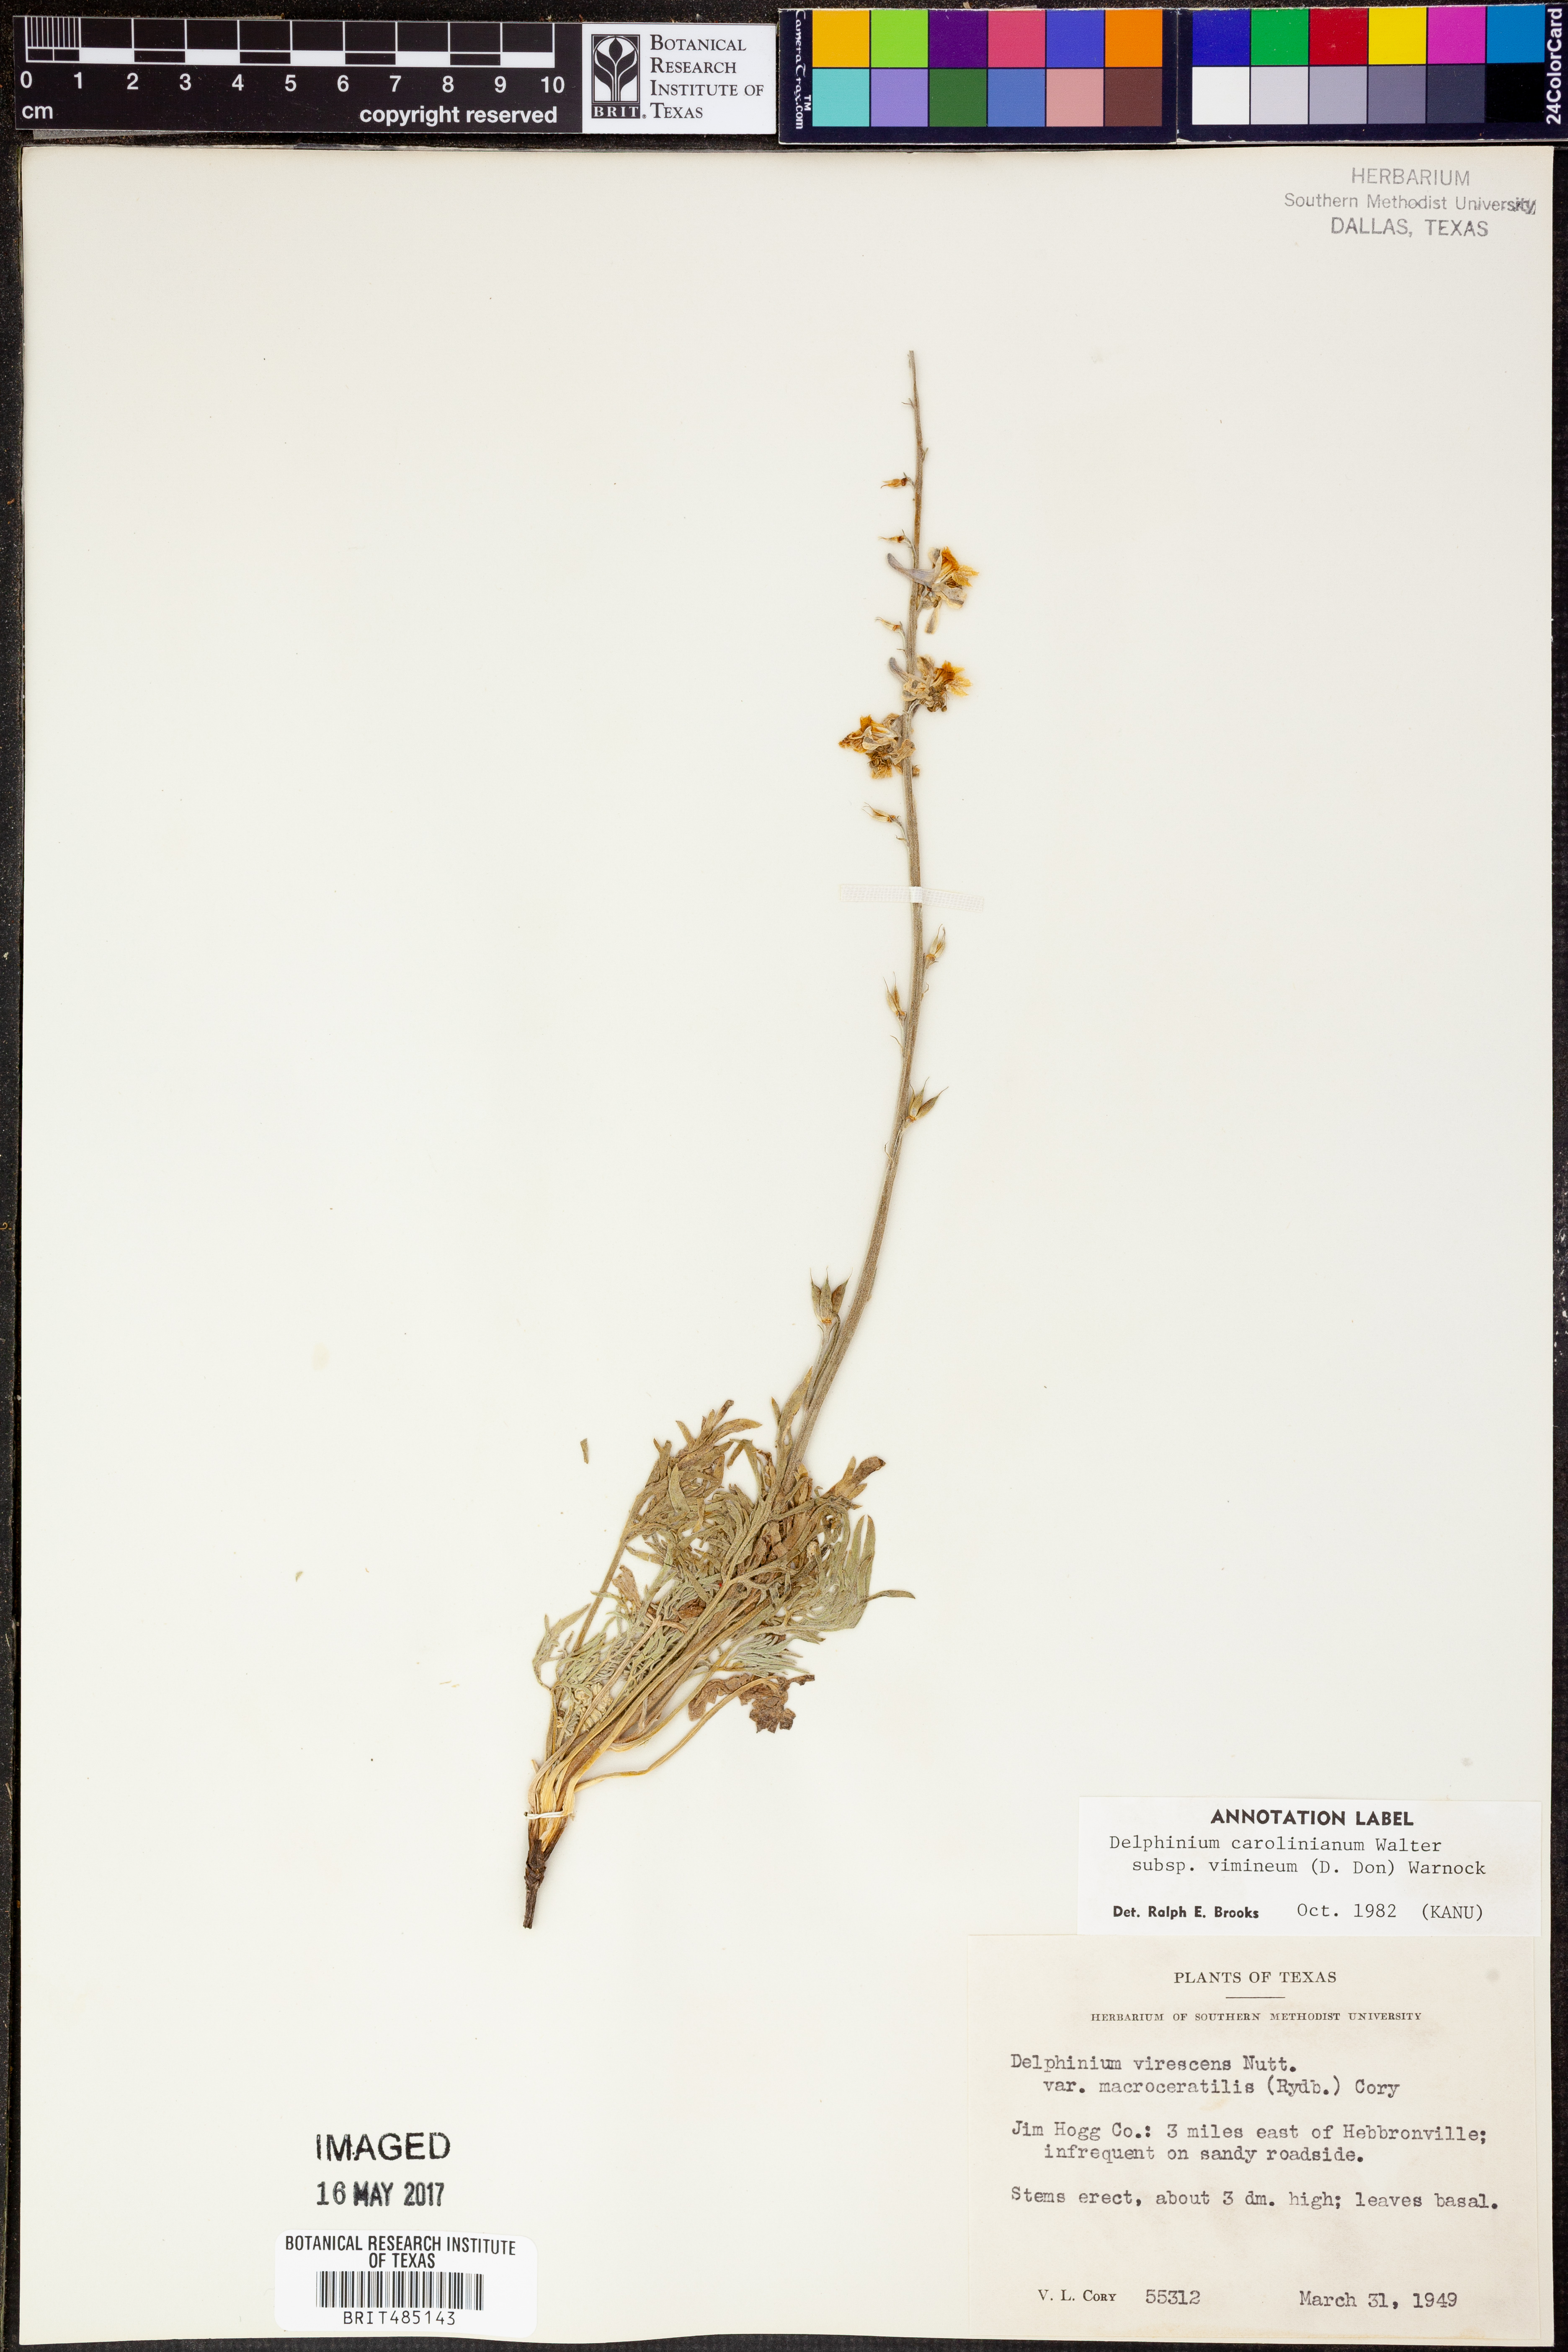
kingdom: Plantae
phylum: Tracheophyta
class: Magnoliopsida
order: Ranunculales
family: Ranunculaceae
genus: Delphinium
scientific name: Delphinium carolinianum
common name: Carolina larkspur
